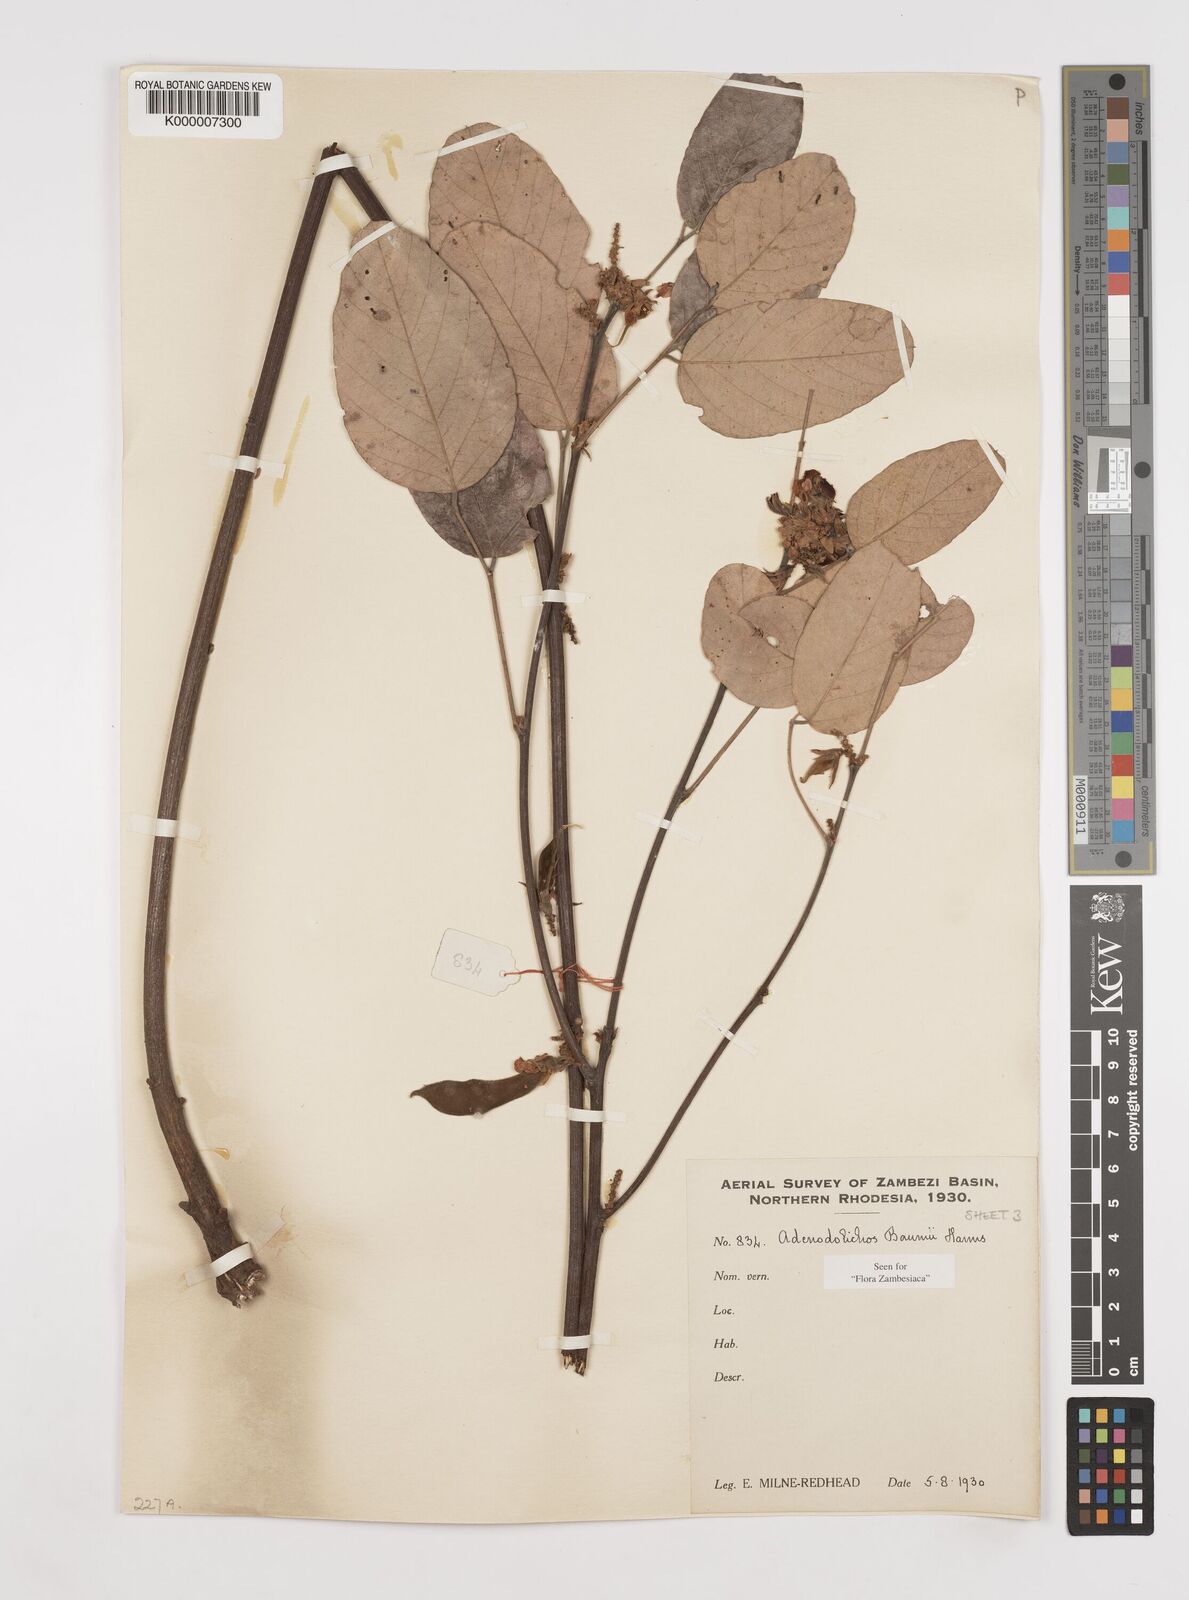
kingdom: Plantae
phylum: Tracheophyta
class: Magnoliopsida
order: Fabales
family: Fabaceae
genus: Adenodolichos
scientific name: Adenodolichos baumii
